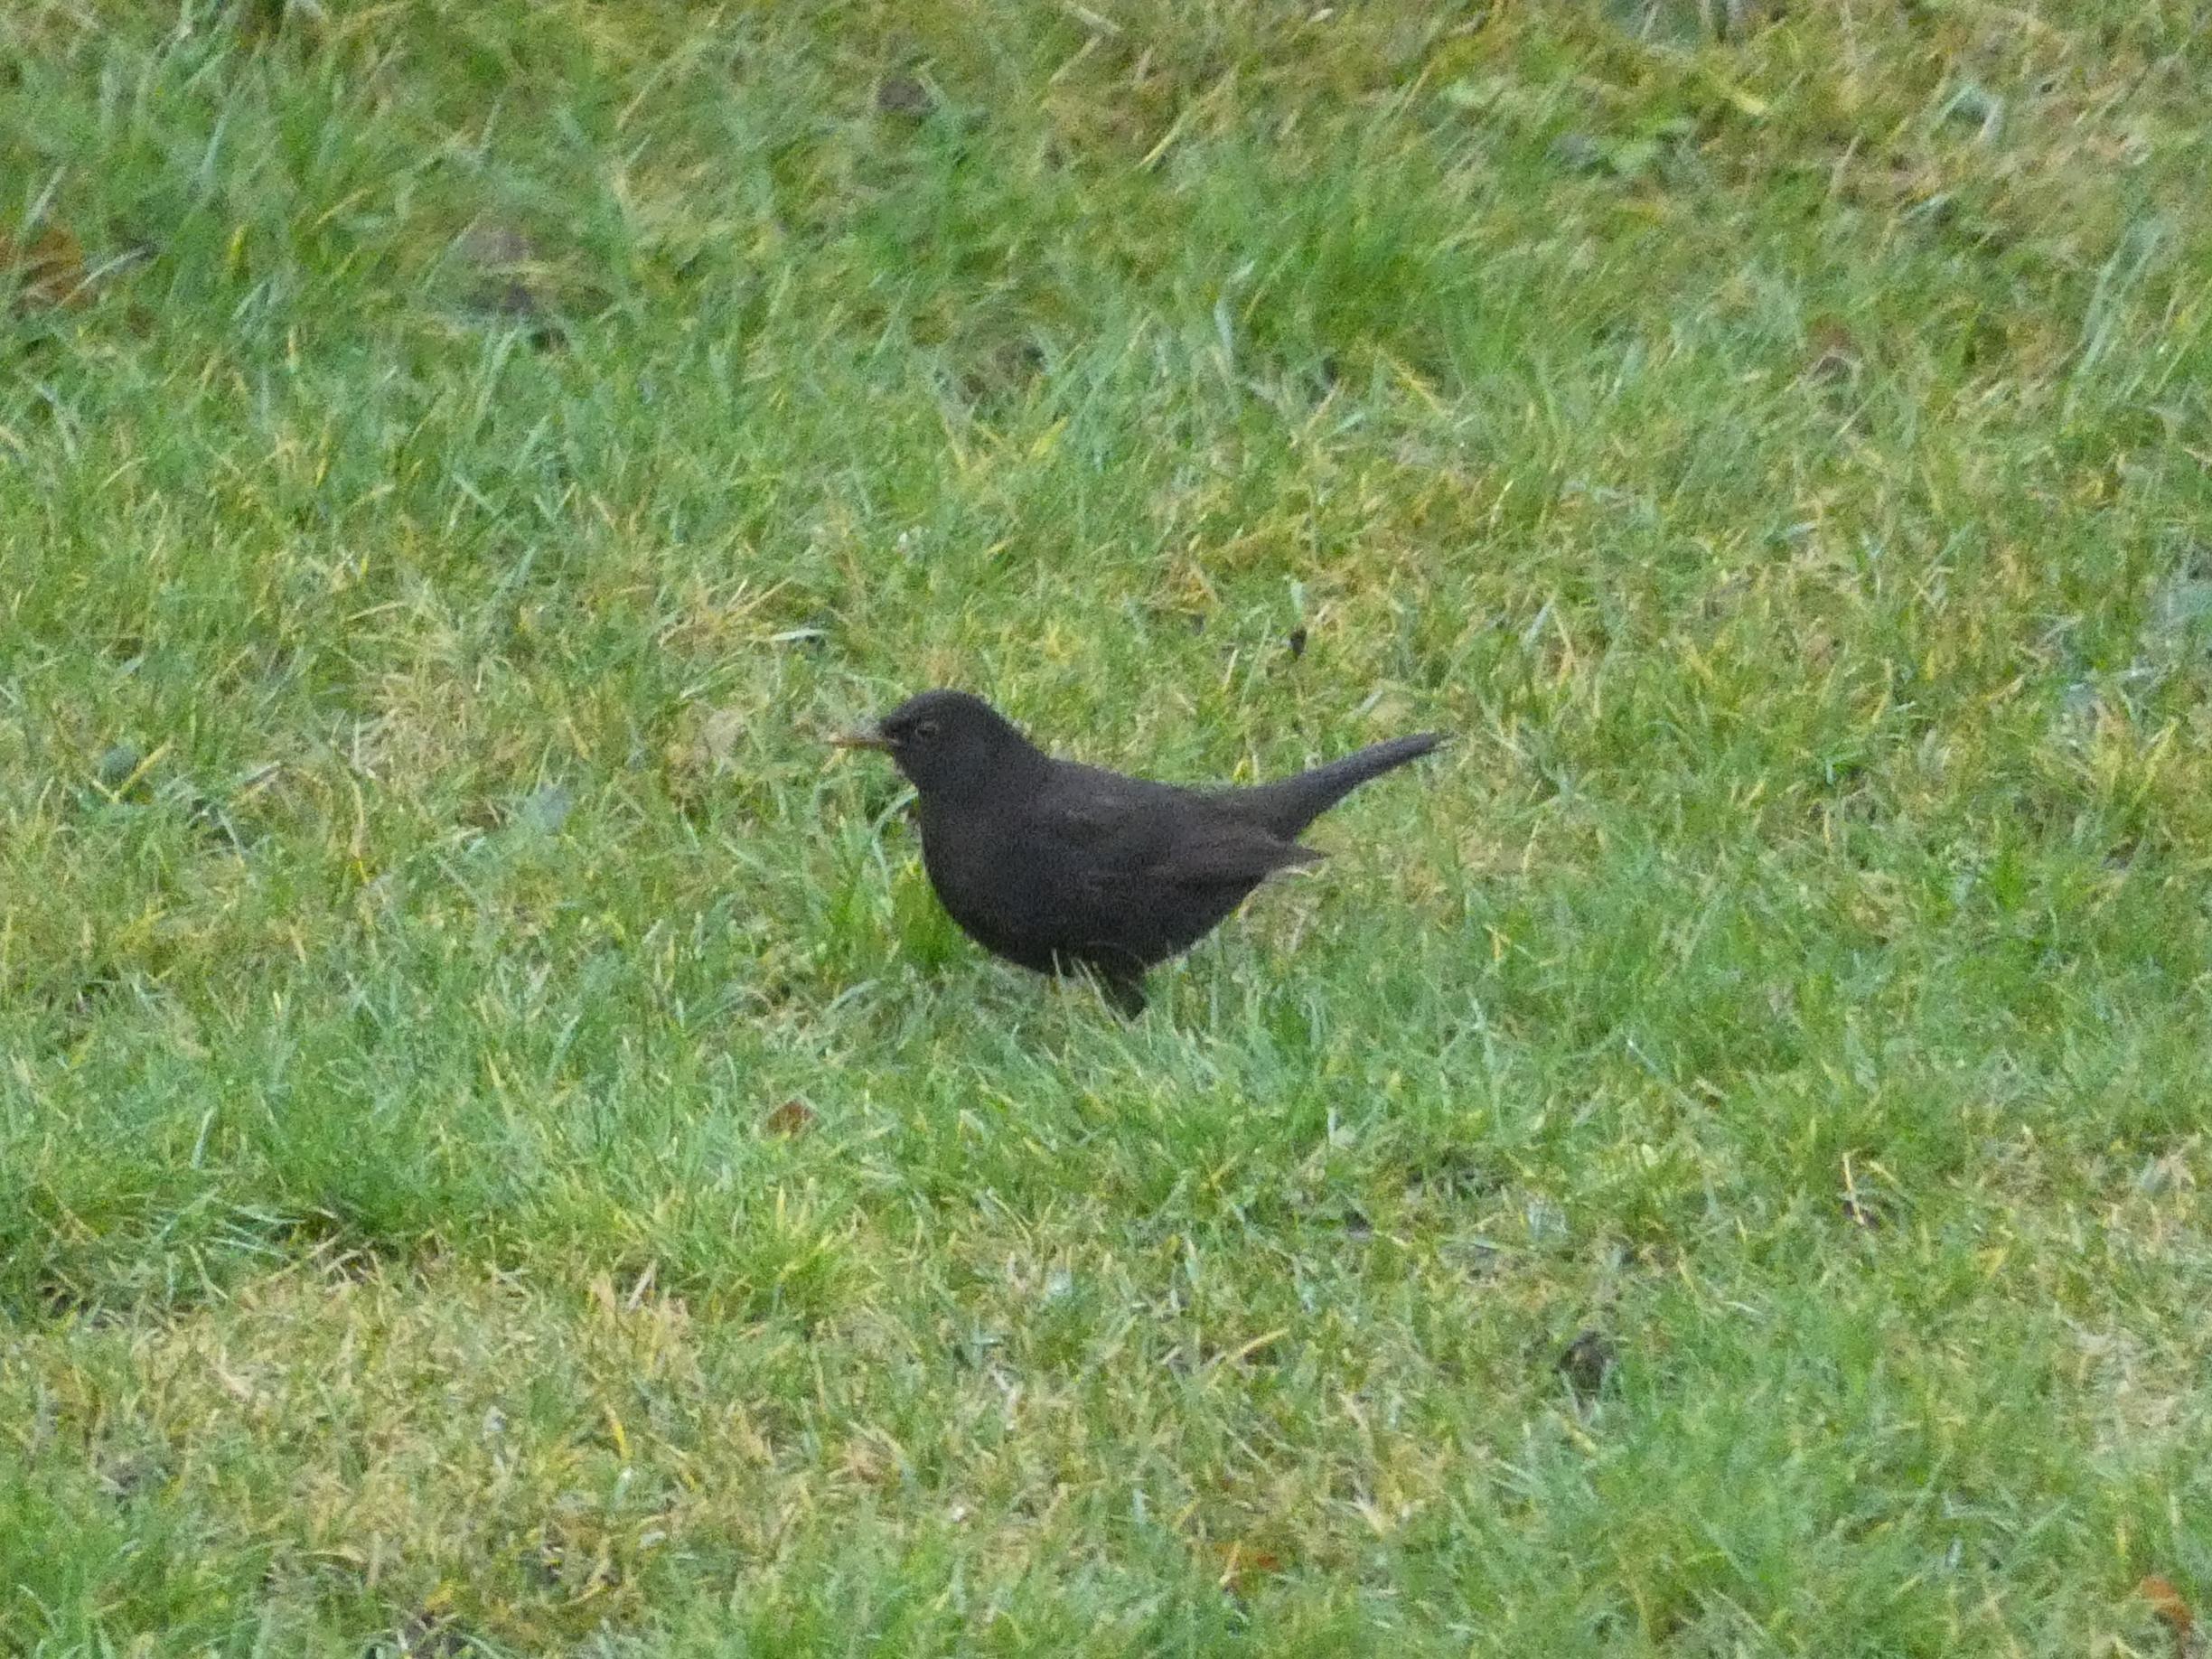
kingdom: Animalia
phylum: Chordata
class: Aves
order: Passeriformes
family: Turdidae
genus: Turdus
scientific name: Turdus merula
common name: Solsort
